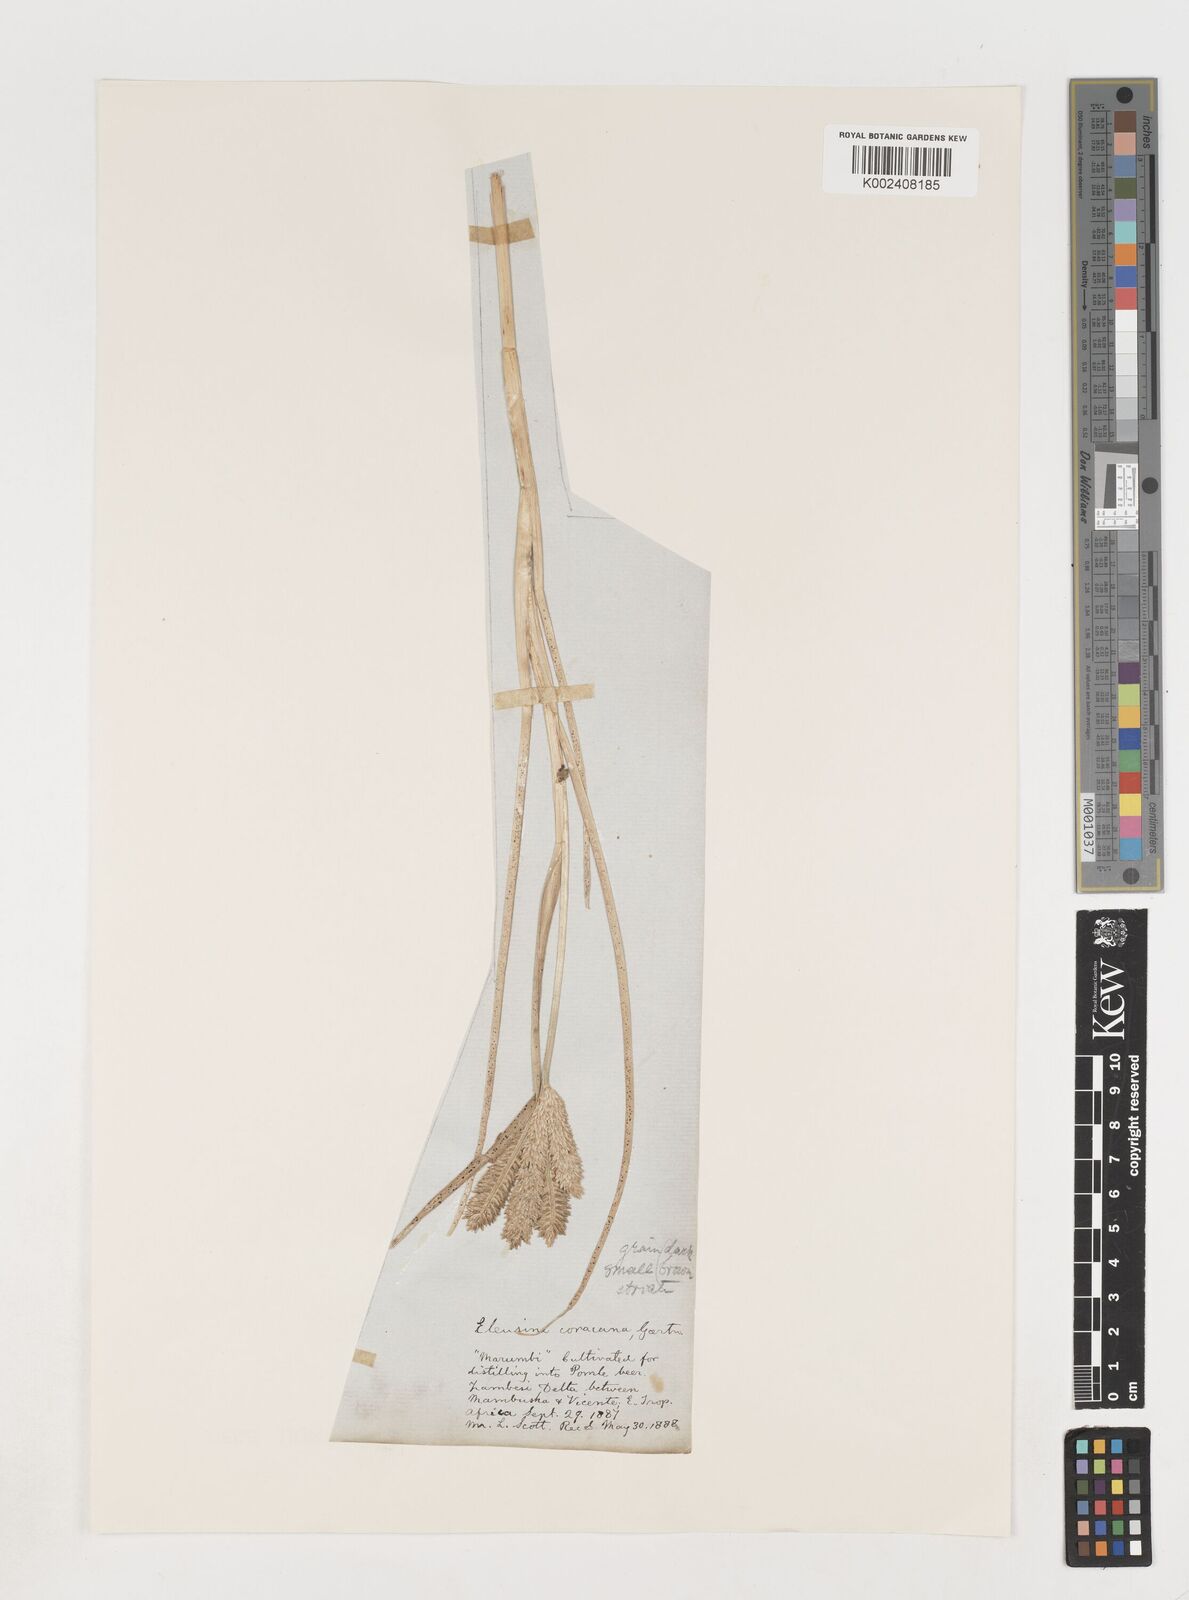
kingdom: Plantae
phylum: Tracheophyta
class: Liliopsida
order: Poales
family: Poaceae
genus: Eleusine
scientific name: Eleusine coracana
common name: Finger millet
